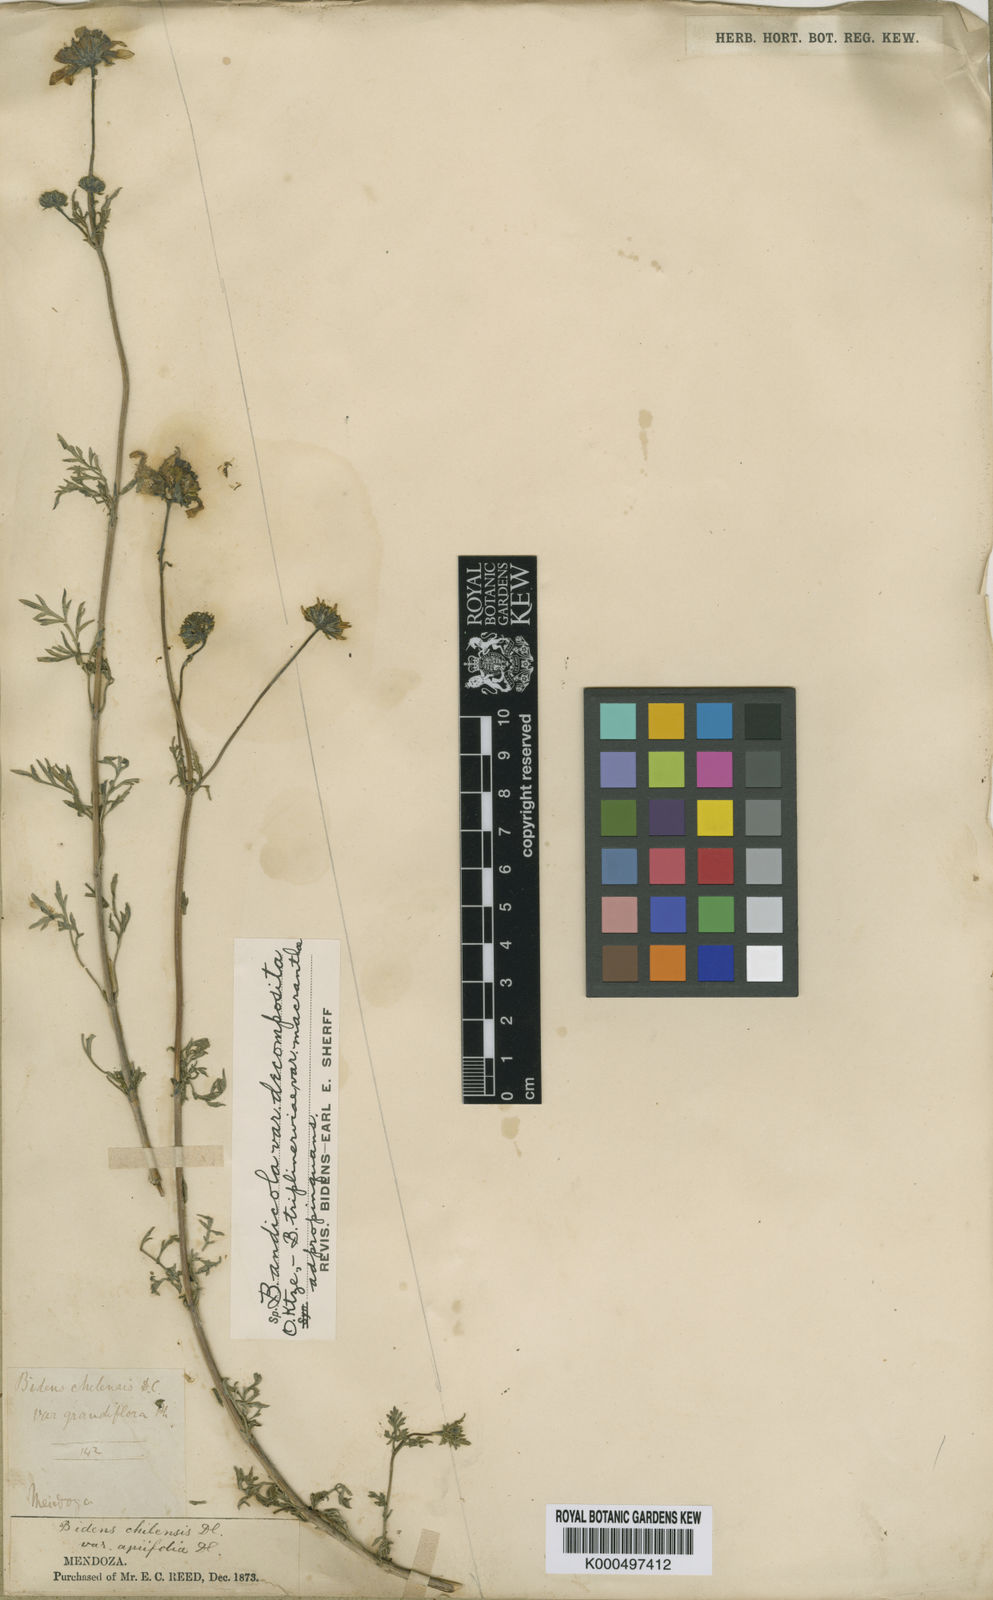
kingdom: Plantae
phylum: Tracheophyta
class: Magnoliopsida
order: Asterales
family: Asteraceae
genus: Bidens
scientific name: Bidens andicola
